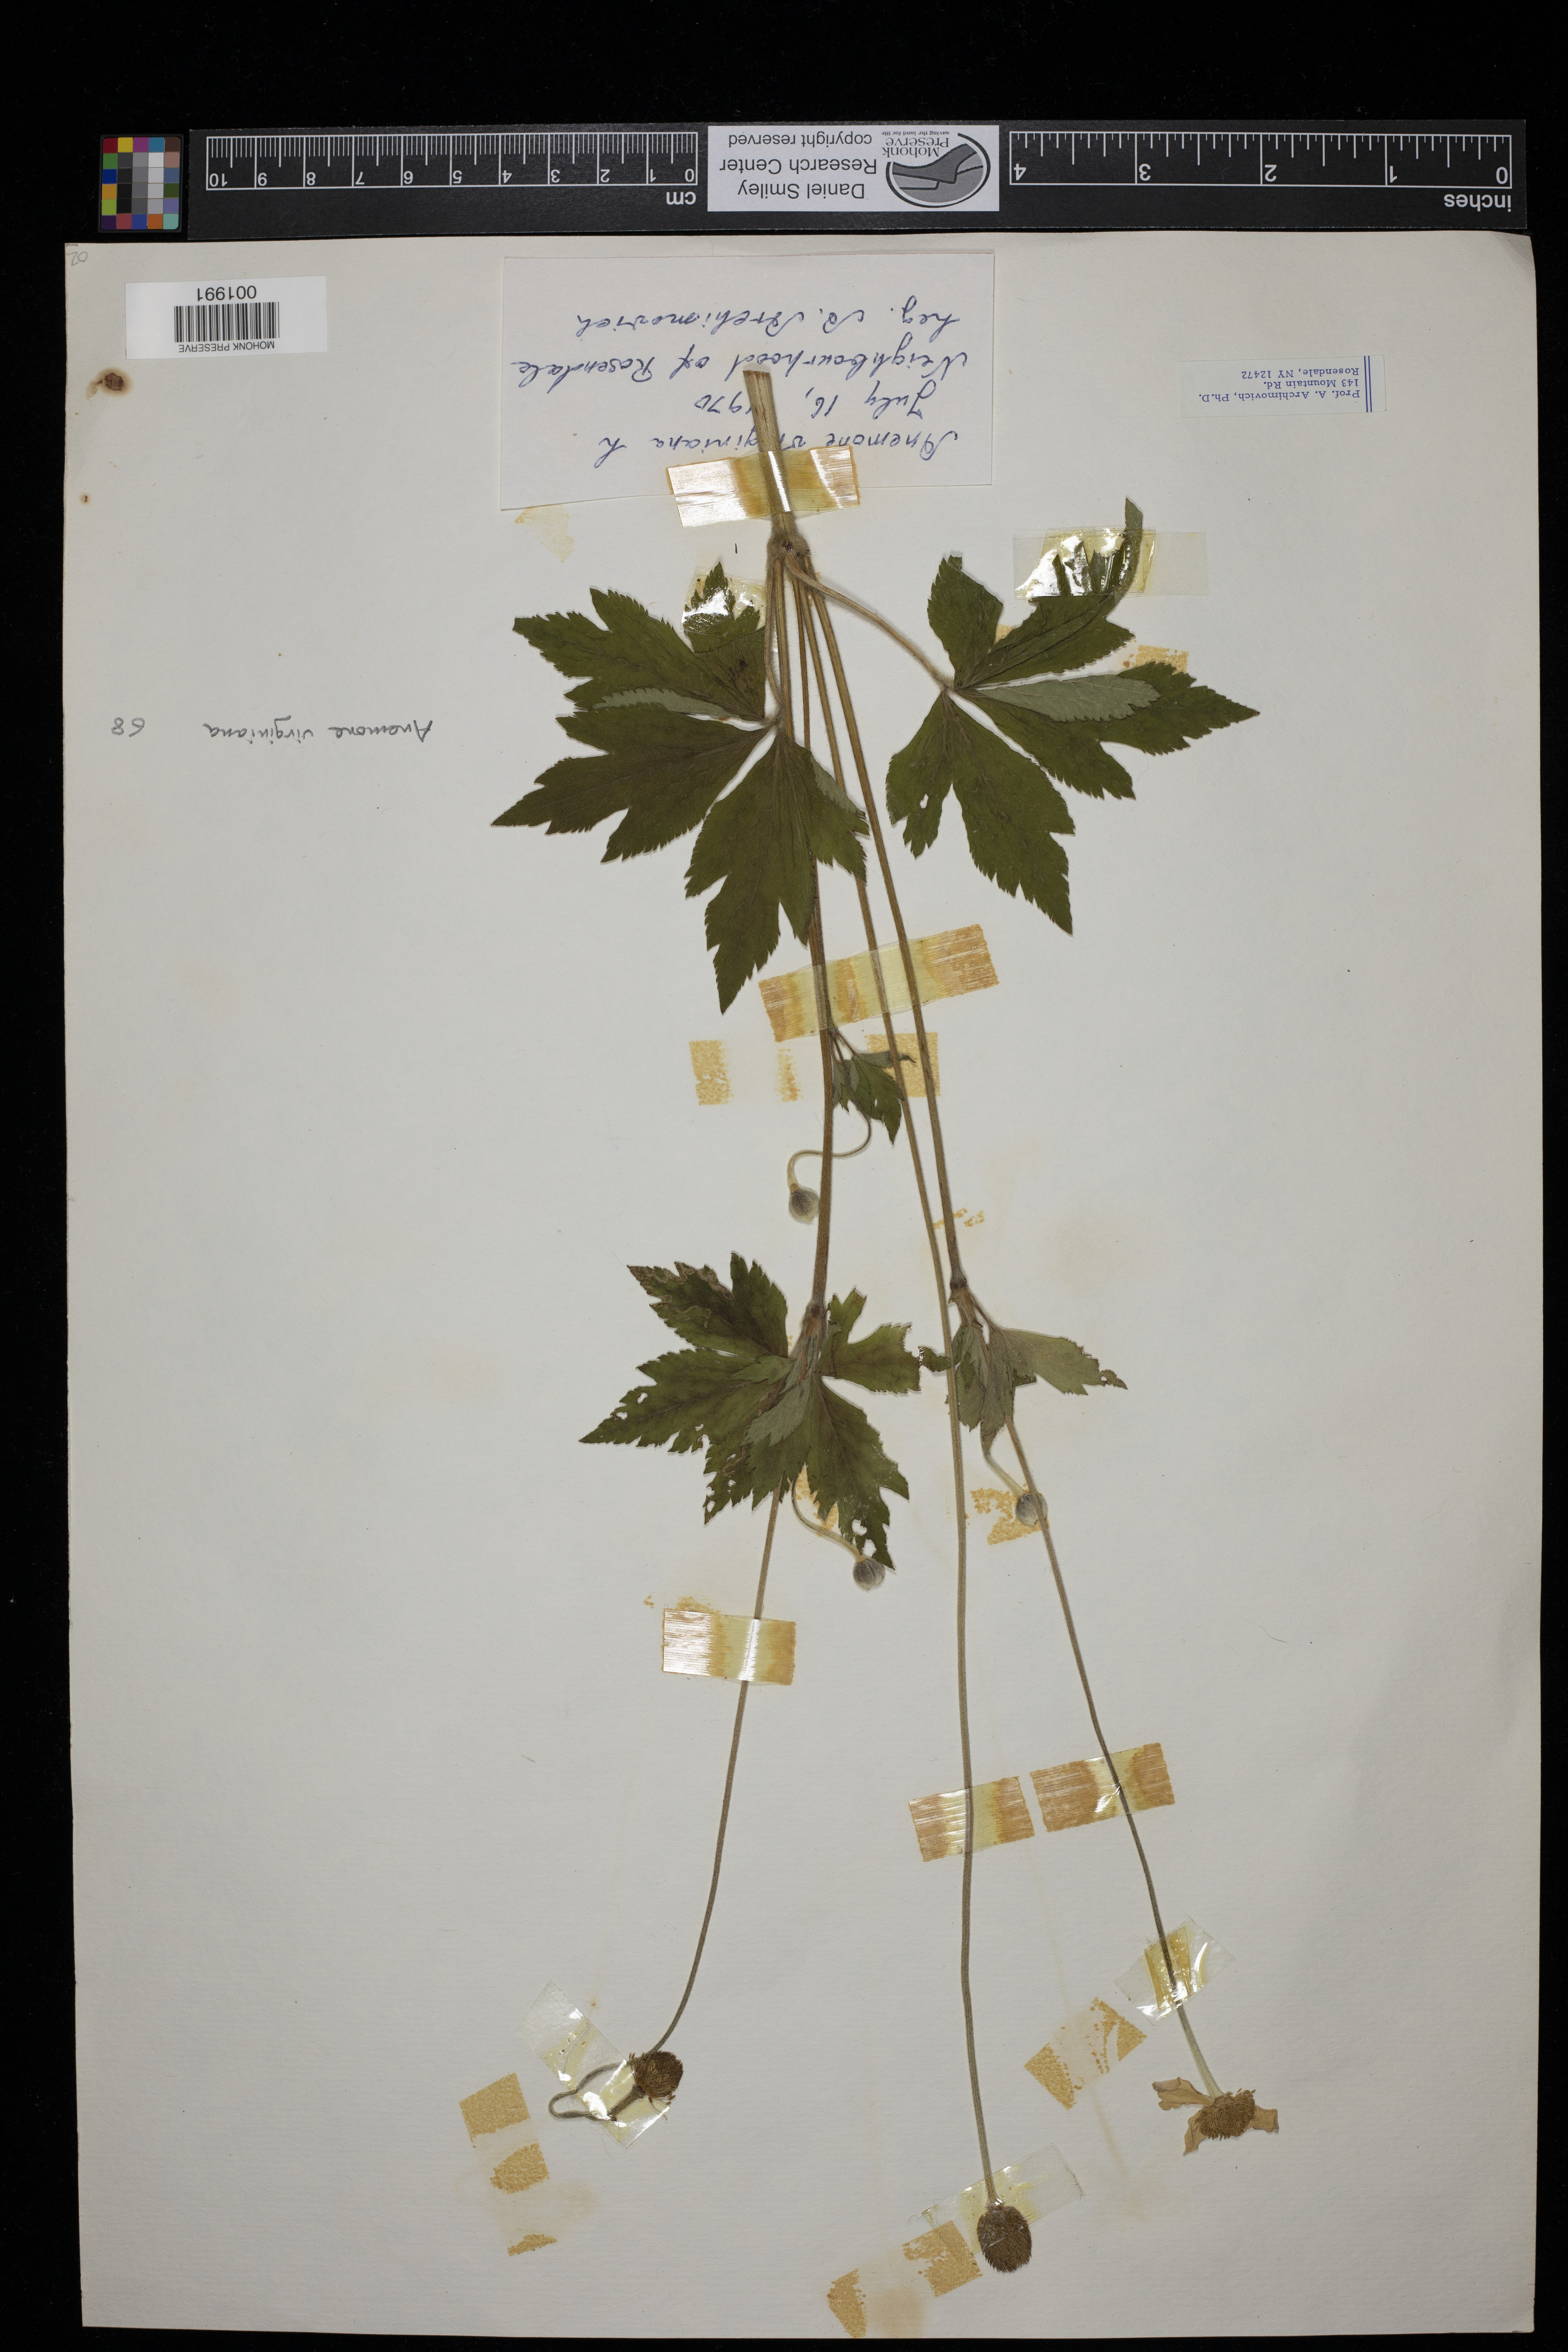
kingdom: Plantae
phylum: Tracheophyta
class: Magnoliopsida
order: Ranunculales
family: Ranunculaceae
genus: Anemone
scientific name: Anemone virginiana
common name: Tall anemone
